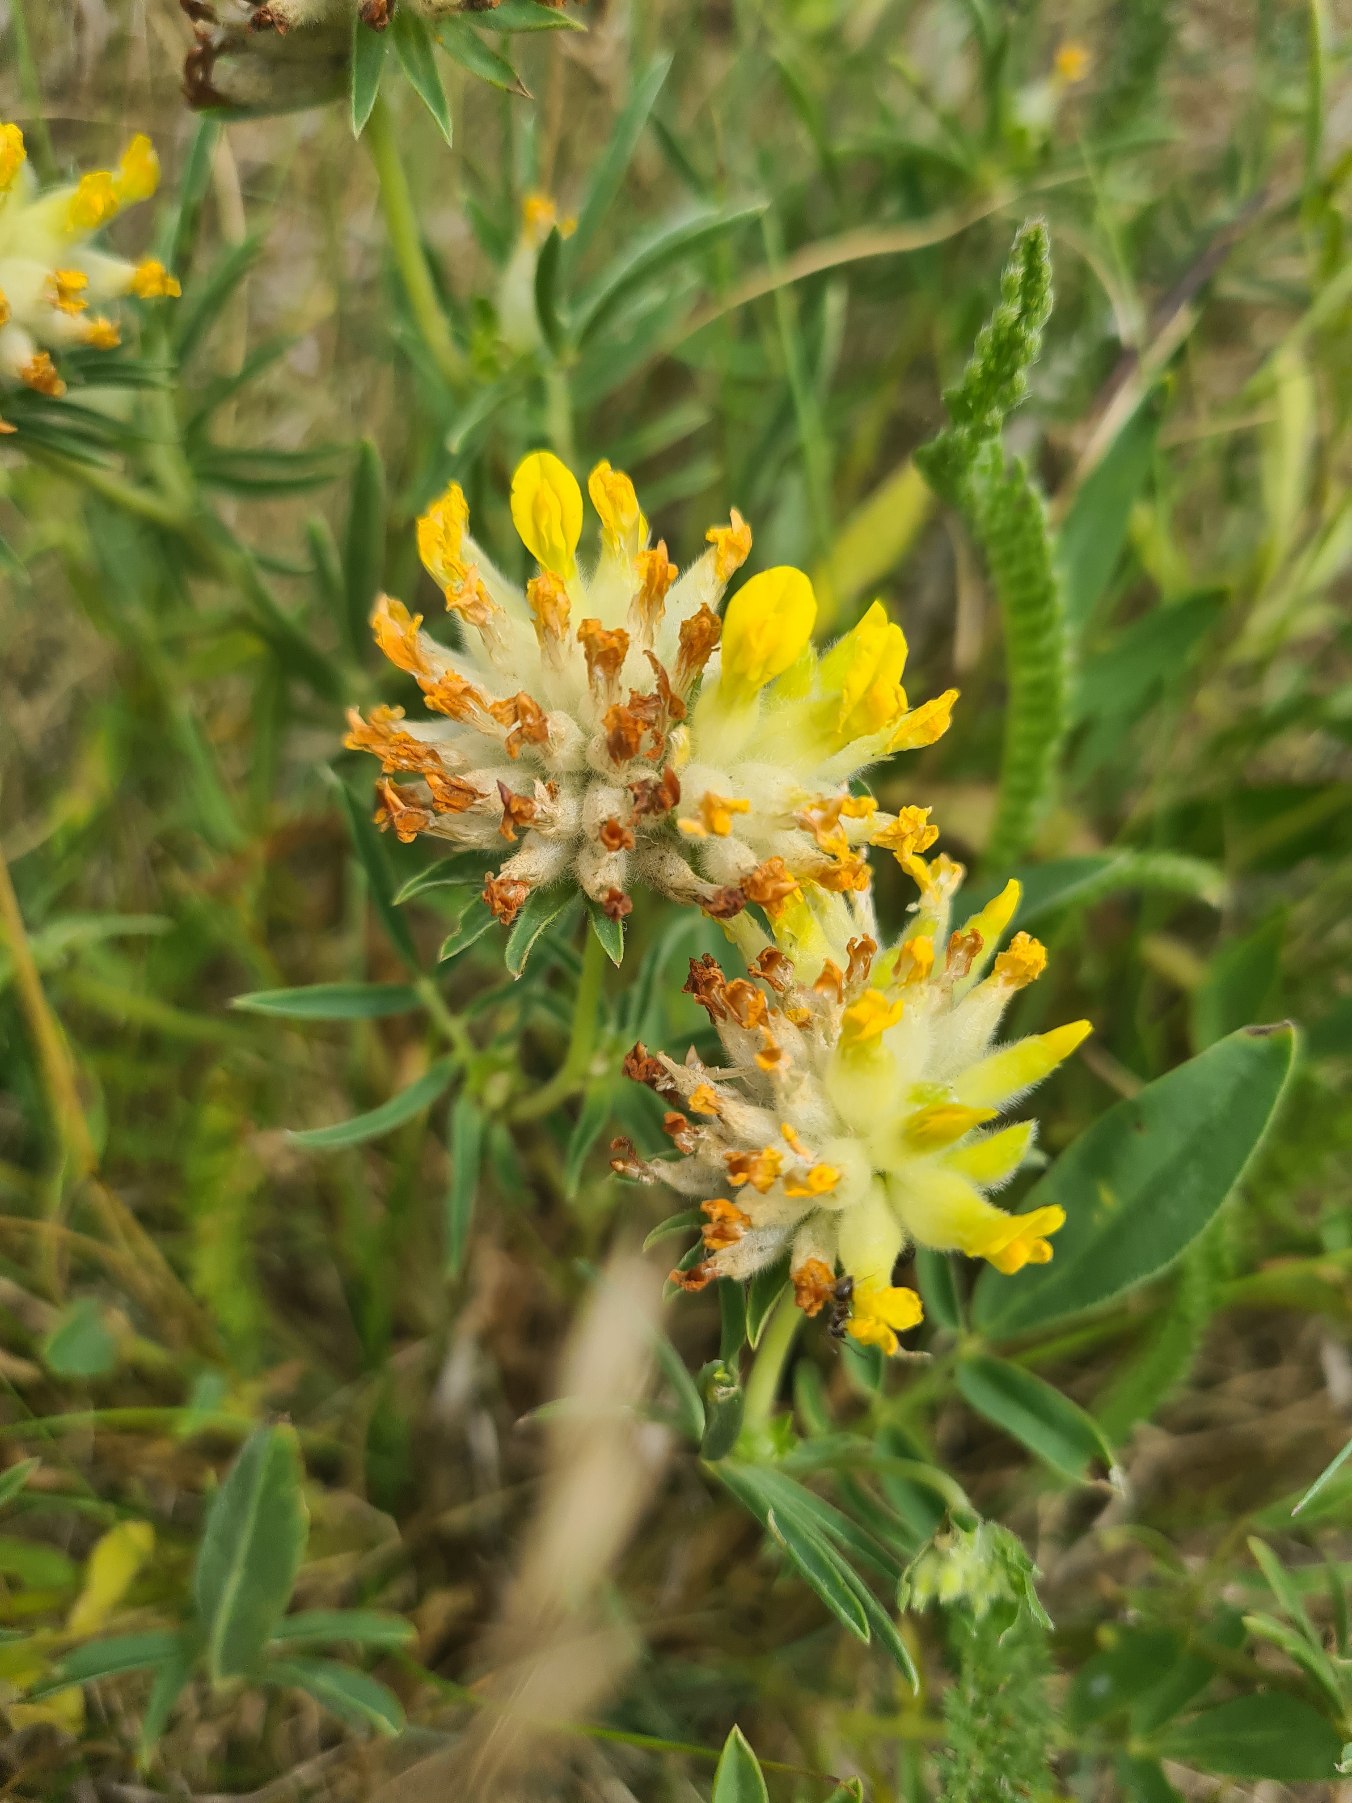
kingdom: Plantae
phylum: Tracheophyta
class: Magnoliopsida
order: Fabales
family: Fabaceae
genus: Anthyllis
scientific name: Anthyllis vulneraria
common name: Rundbælg
